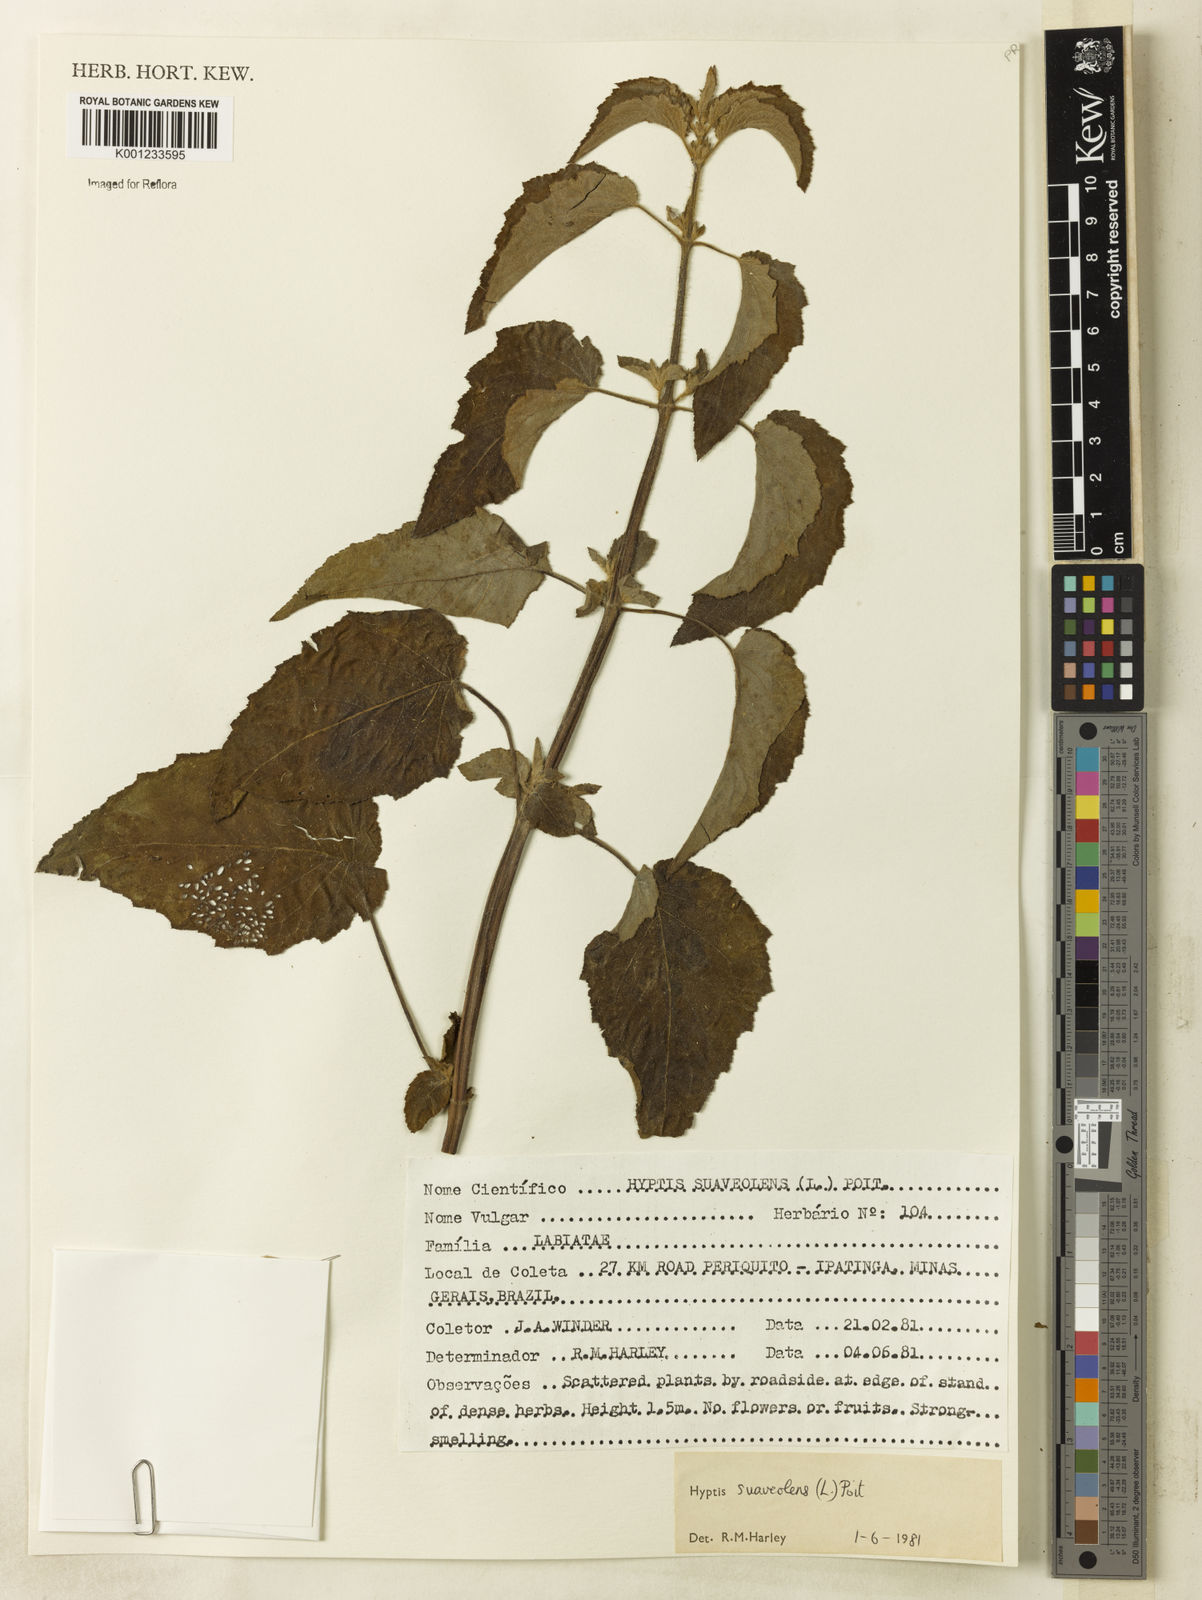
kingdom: Plantae
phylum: Tracheophyta
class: Magnoliopsida
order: Lamiales
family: Lamiaceae
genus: Mesosphaerum
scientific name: Mesosphaerum suaveolens
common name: Pignut
